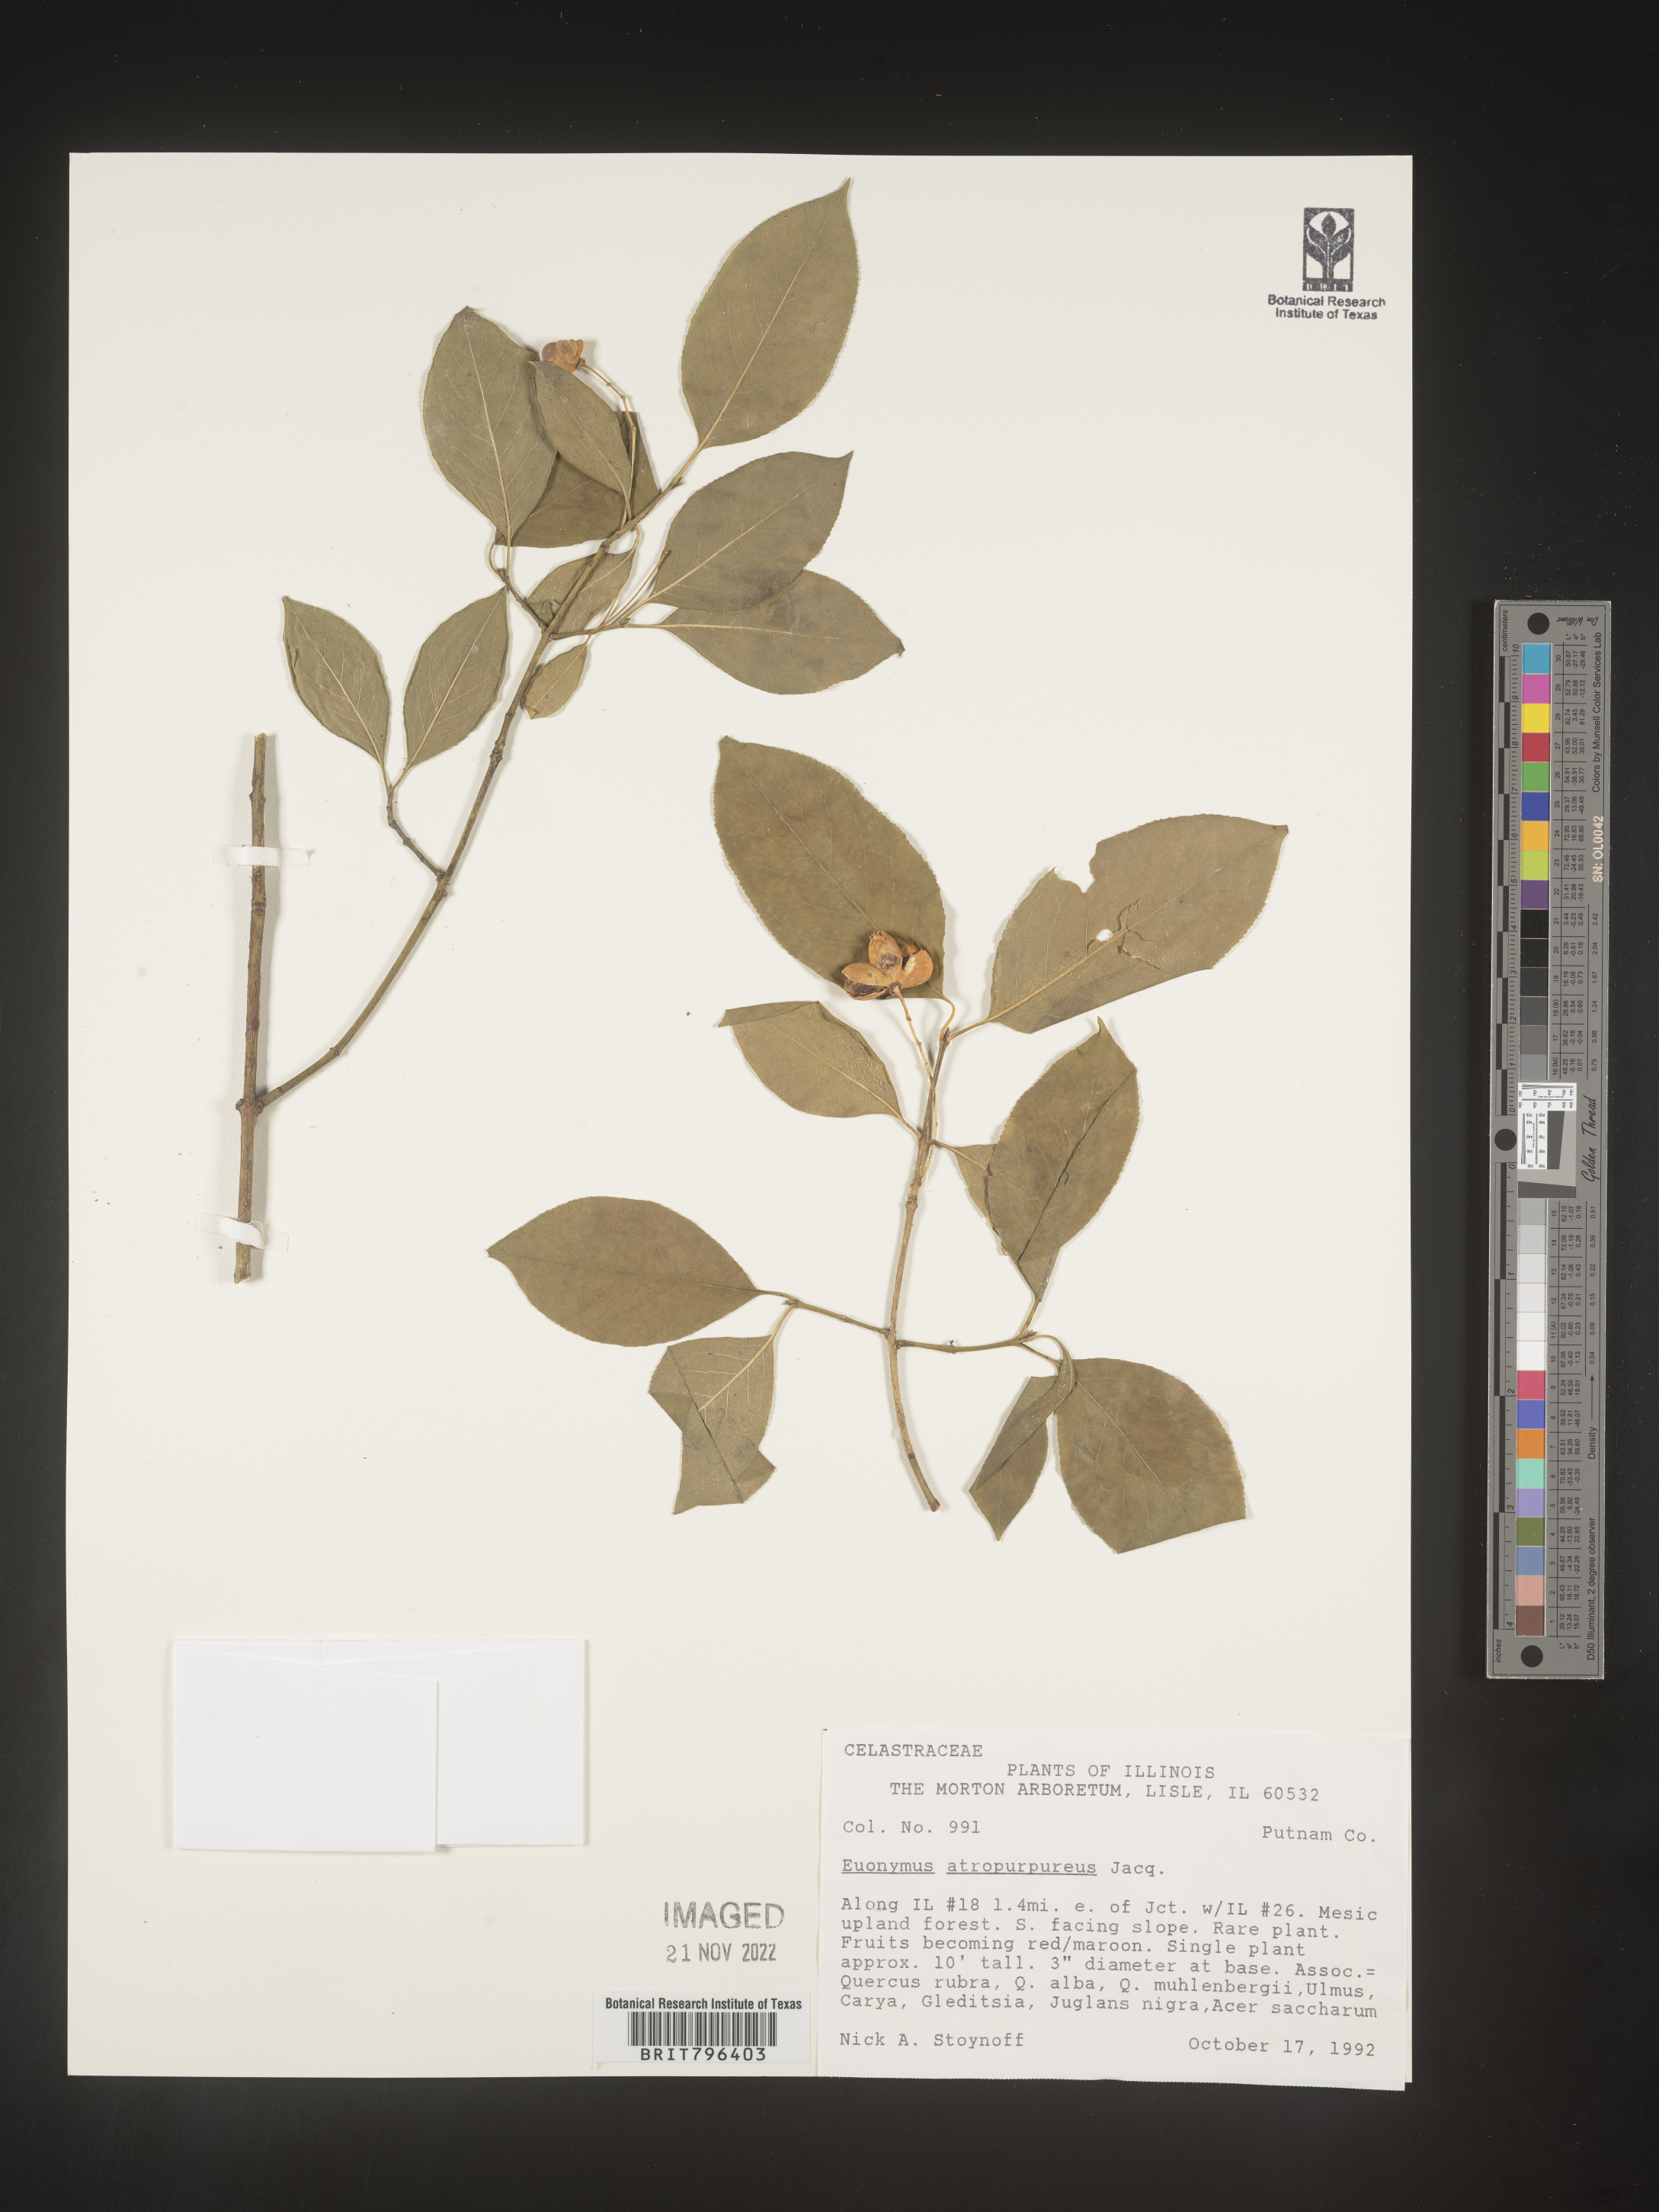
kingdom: Plantae
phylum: Tracheophyta
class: Magnoliopsida
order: Celastrales
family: Celastraceae
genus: Euonymus
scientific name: Euonymus atropurpureus
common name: Eastern wahoo
